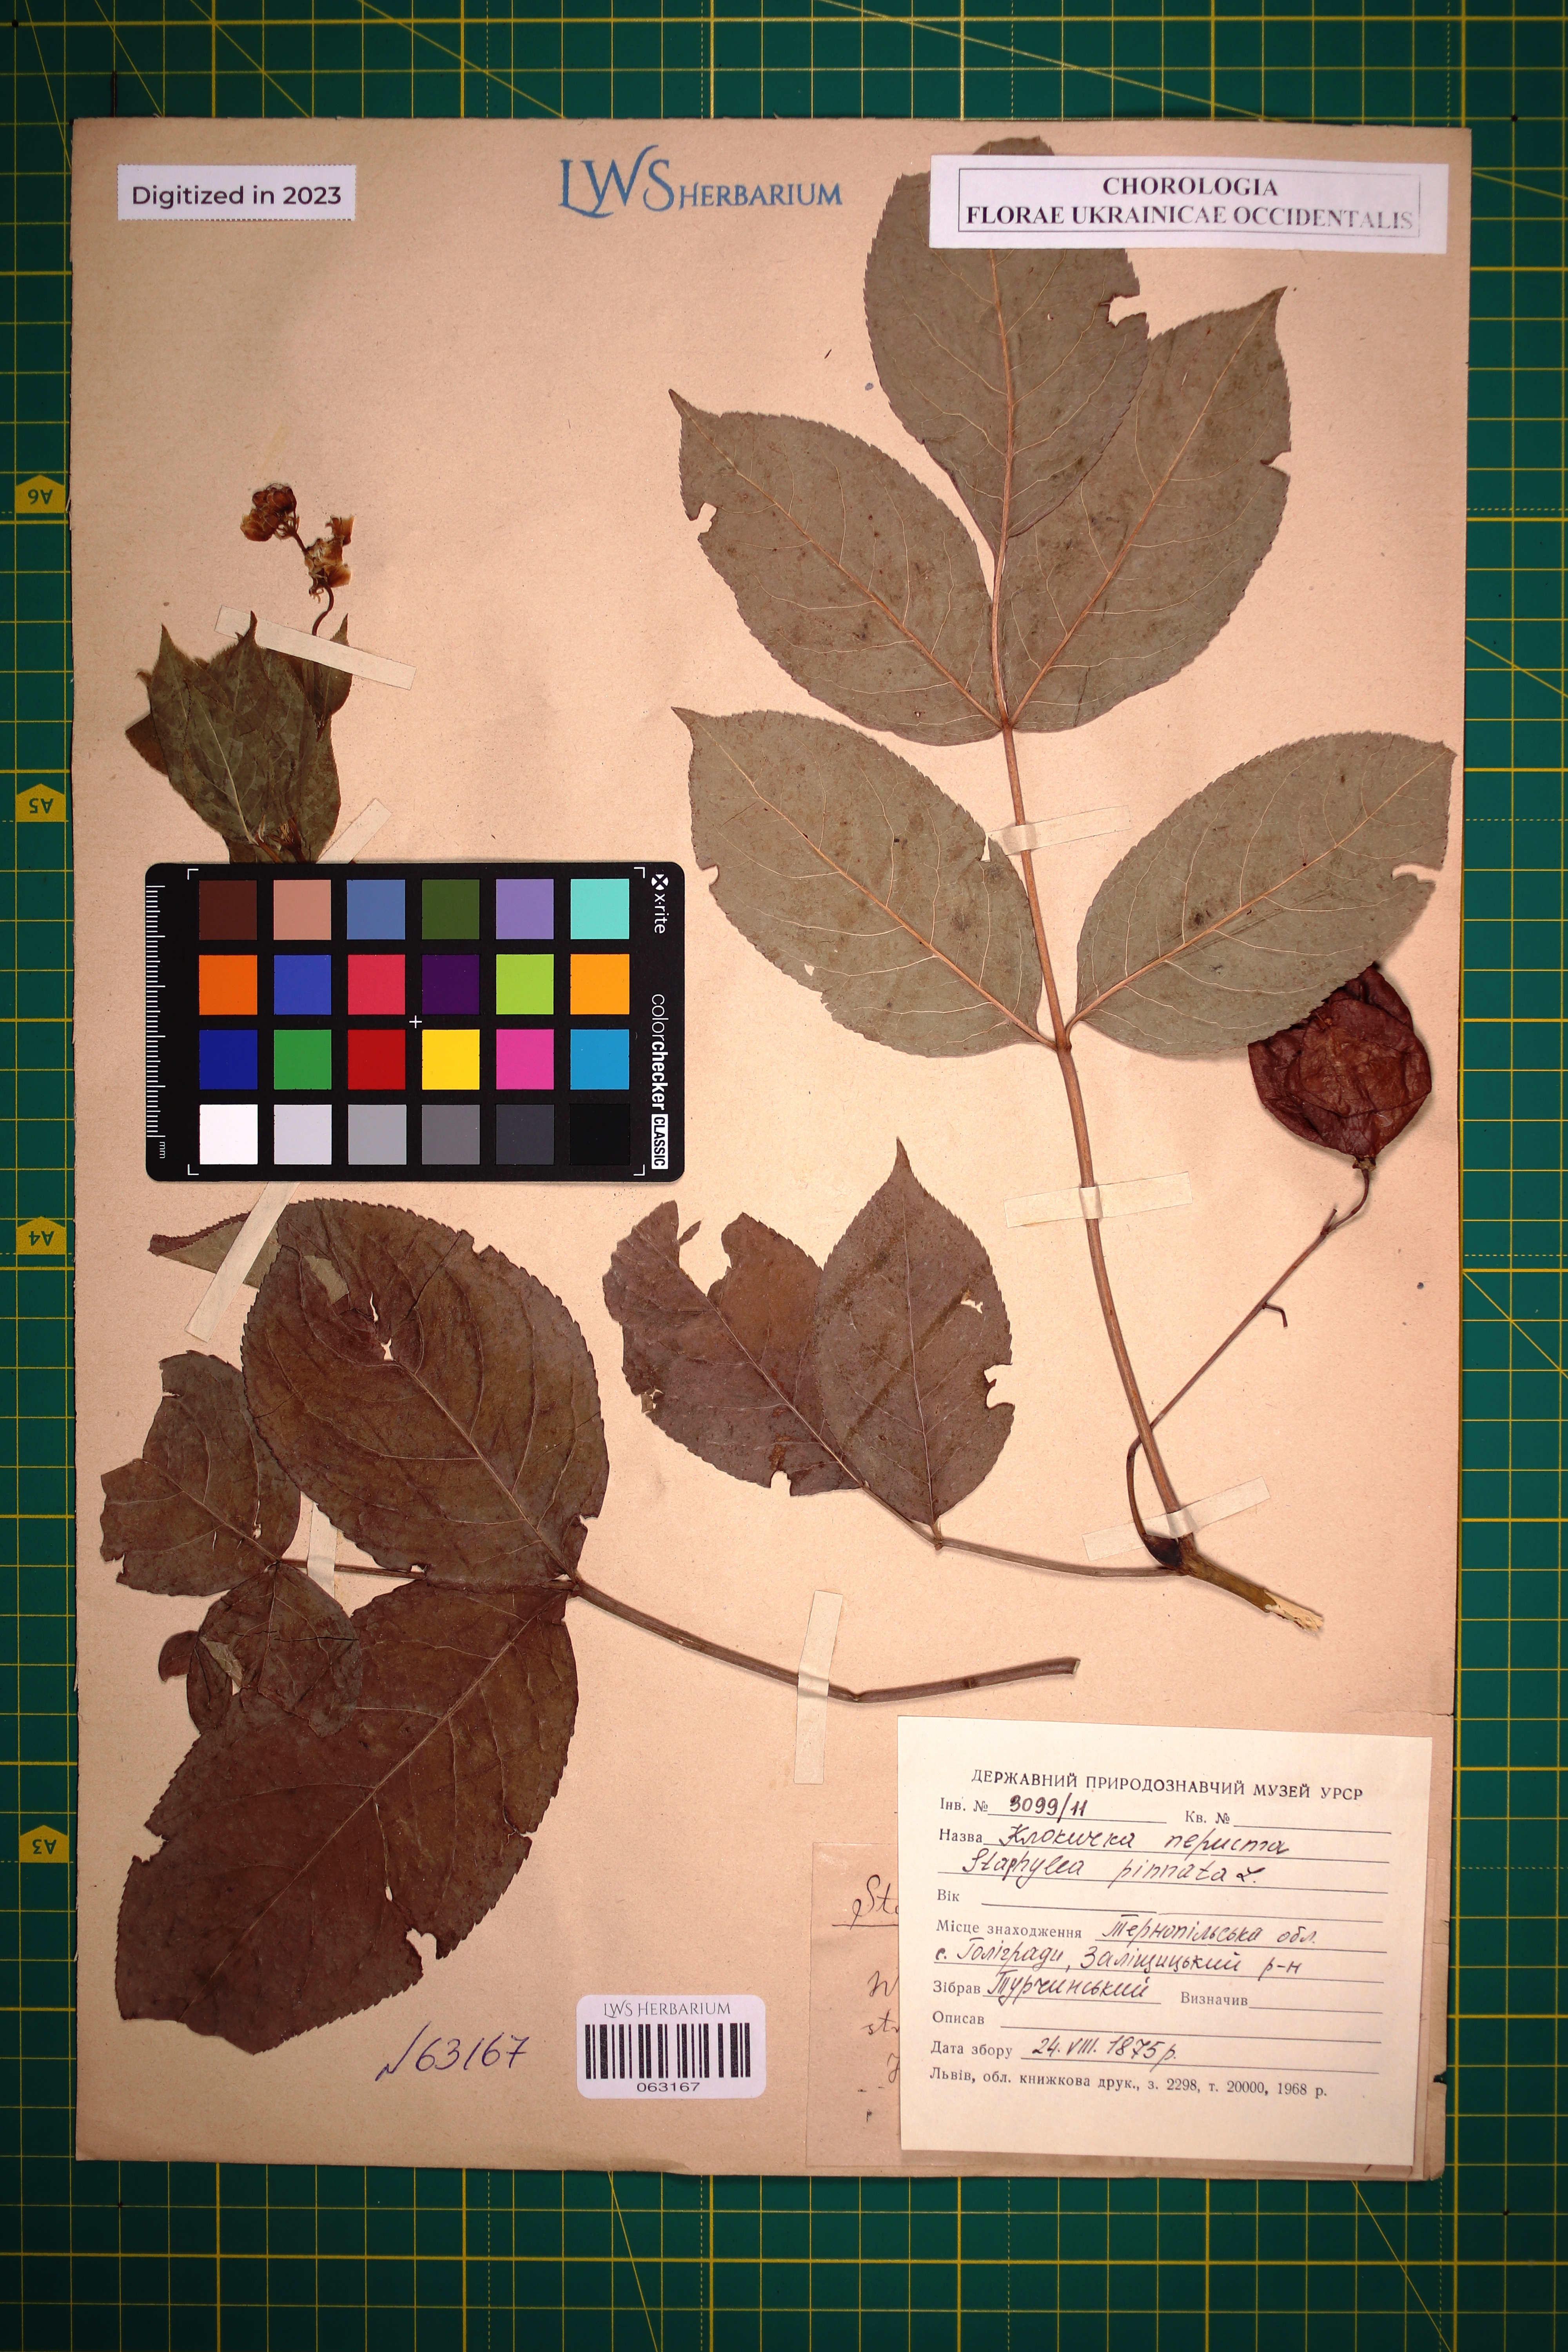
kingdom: Plantae
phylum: Tracheophyta
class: Magnoliopsida
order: Crossosomatales
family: Staphyleaceae
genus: Staphylea
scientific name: Staphylea pinnata
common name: Bladdernut
